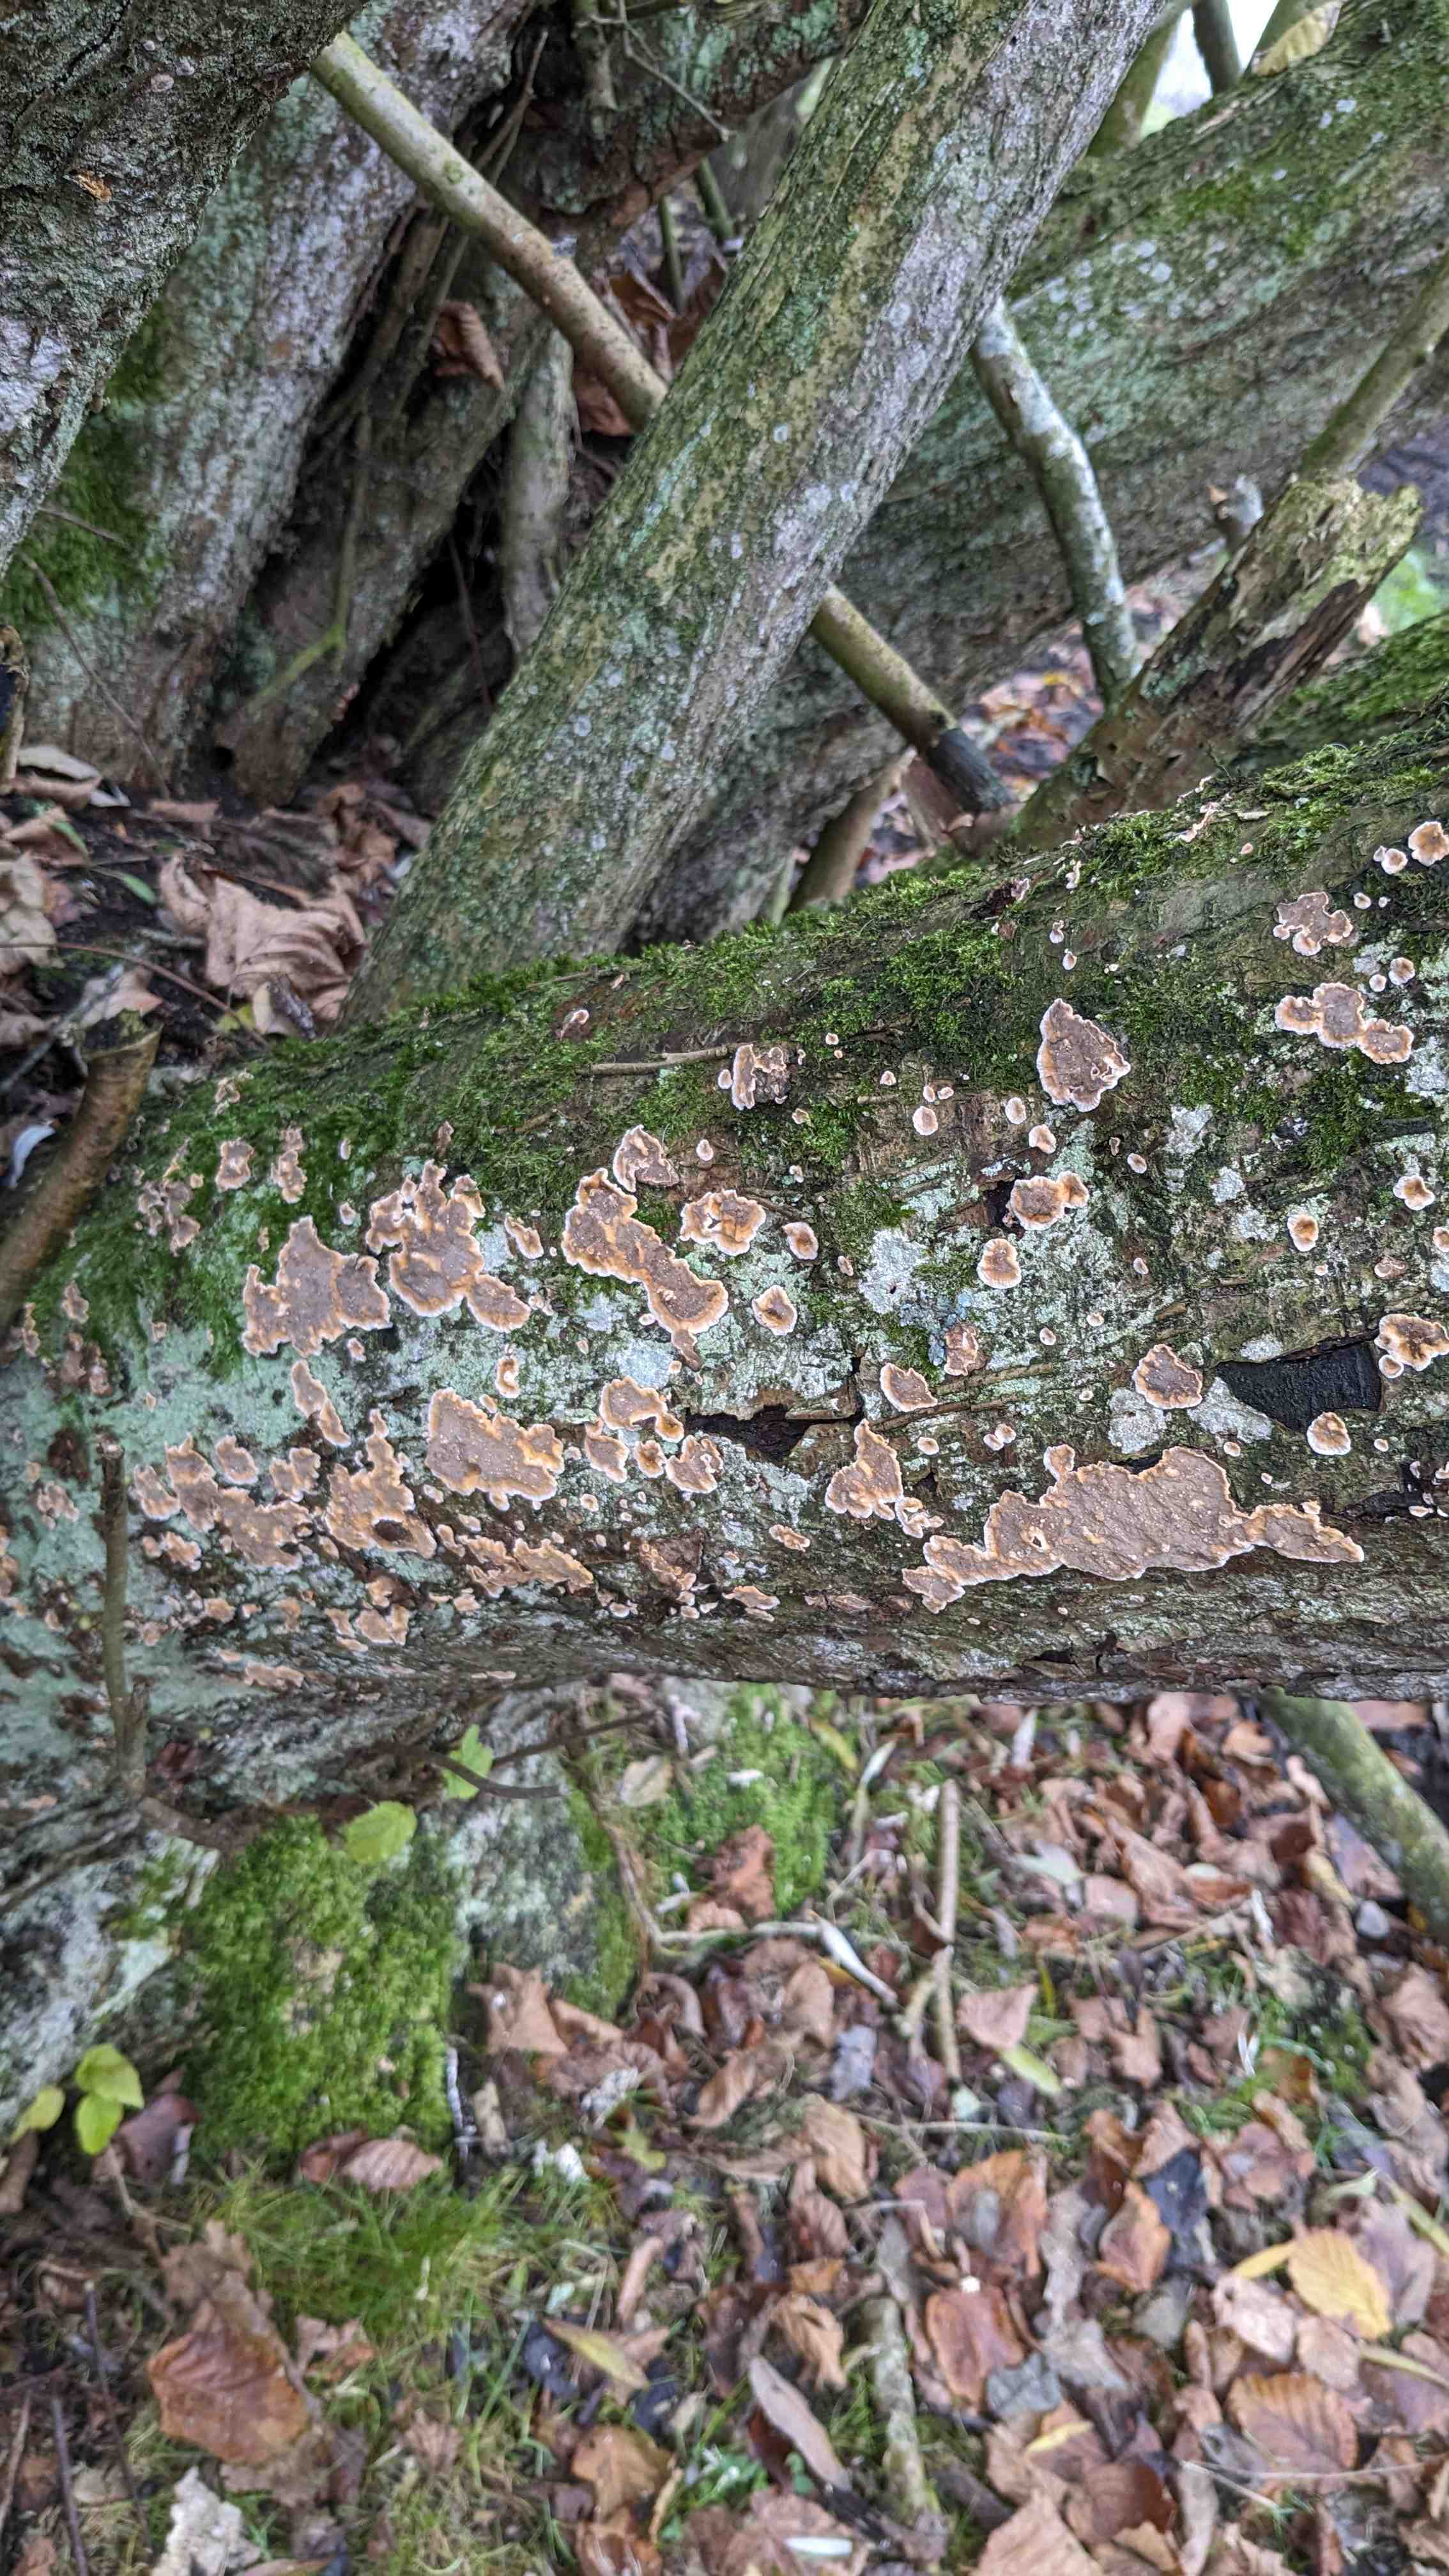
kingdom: Fungi
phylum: Basidiomycota
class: Agaricomycetes
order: Russulales
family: Stereaceae
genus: Stereum
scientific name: Stereum rugosum
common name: rynket lædersvamp
